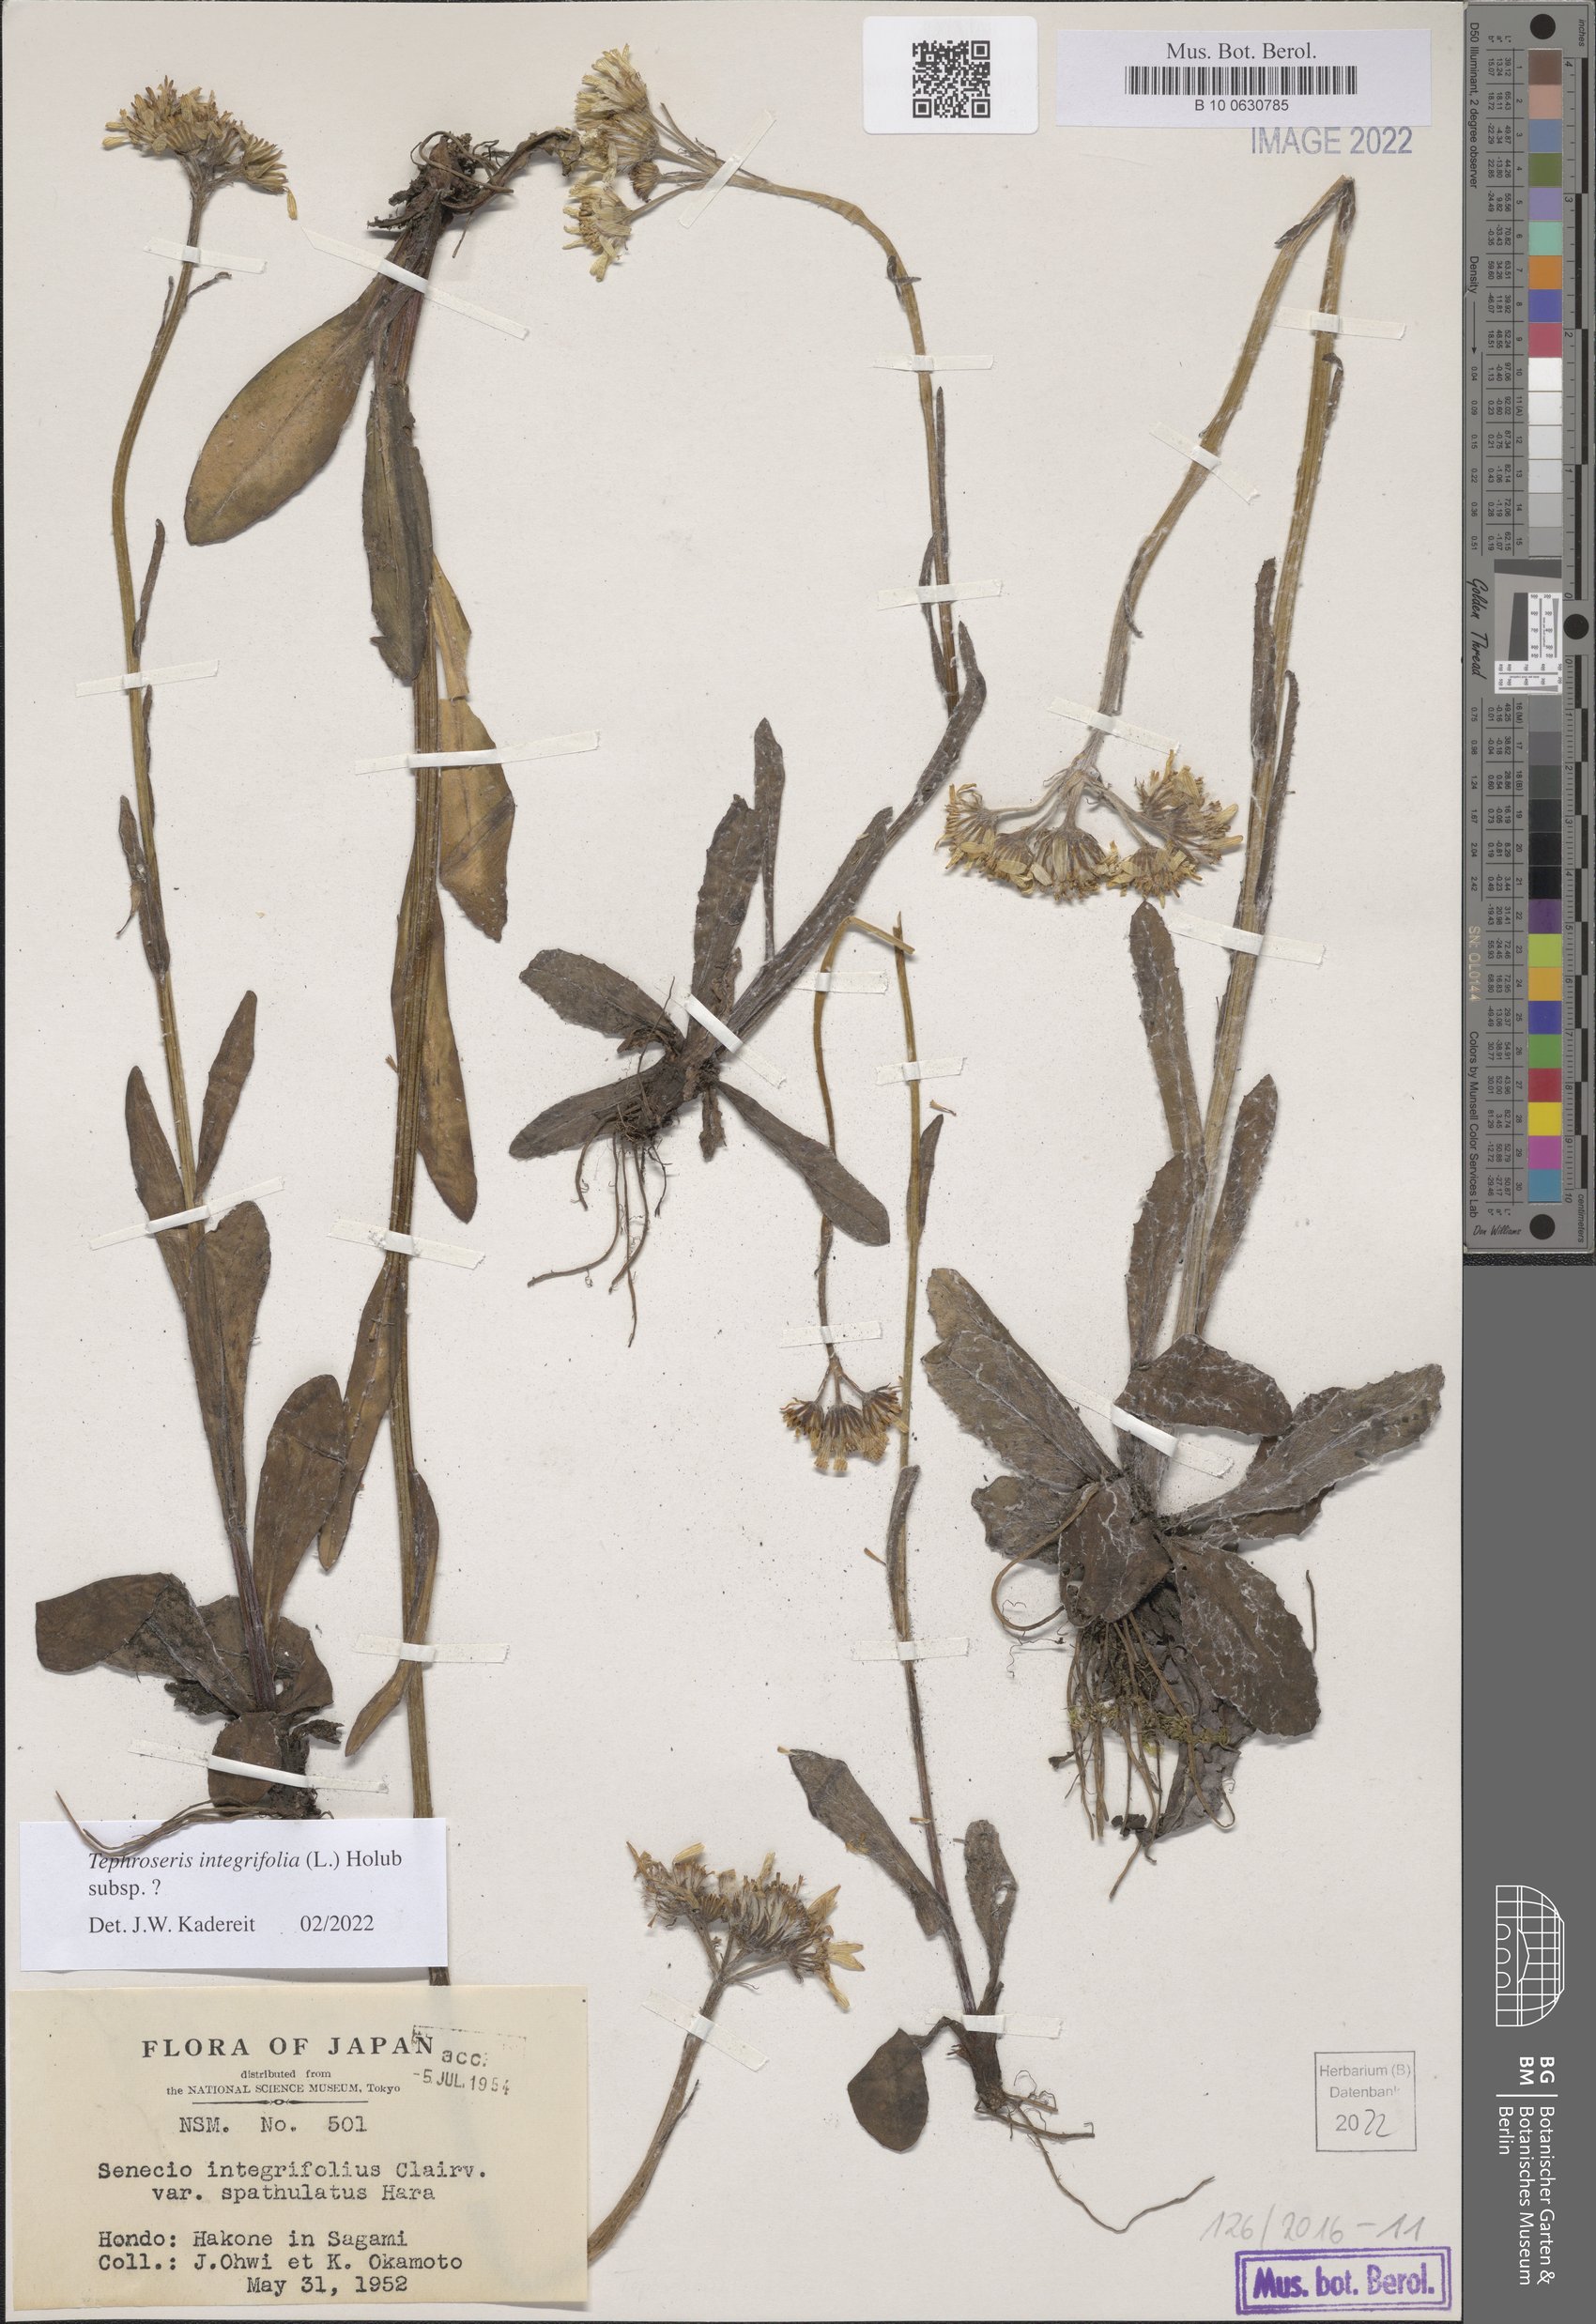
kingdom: Plantae
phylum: Tracheophyta
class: Magnoliopsida
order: Asterales
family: Asteraceae
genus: Tephroseris
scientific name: Tephroseris integrifolia
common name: Field fleawort
